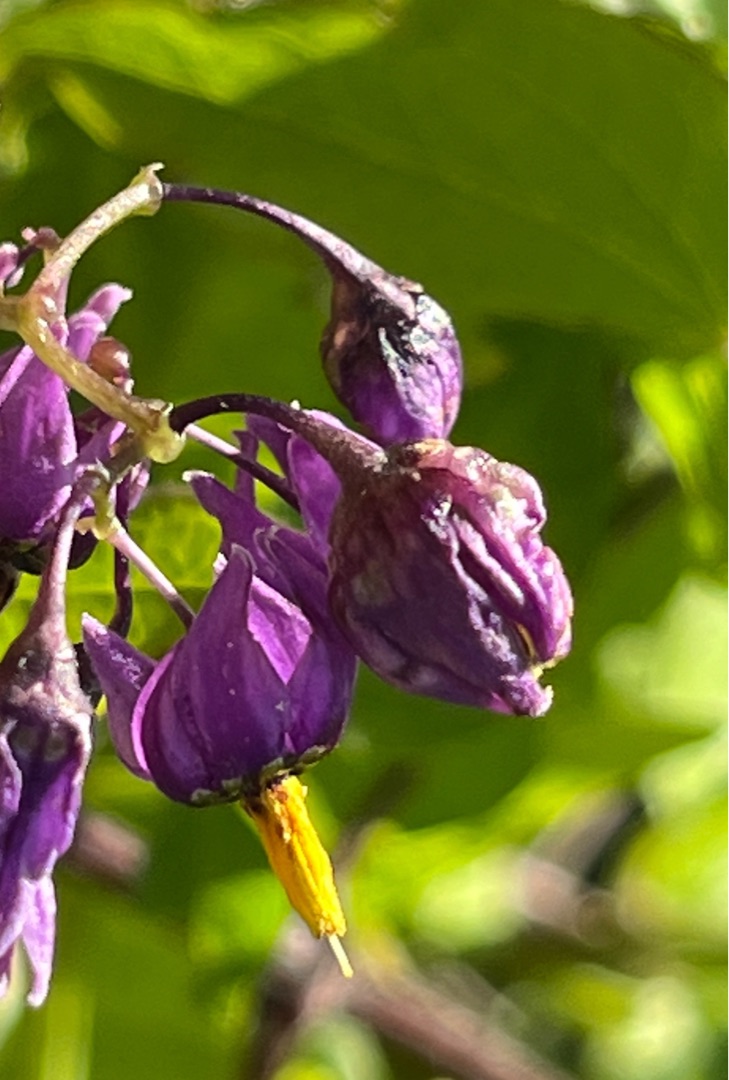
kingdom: Animalia
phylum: Arthropoda
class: Insecta
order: Diptera
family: Cecidomyiidae
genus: Contarinia
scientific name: Contarinia solani
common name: Natskyggegalmyg
